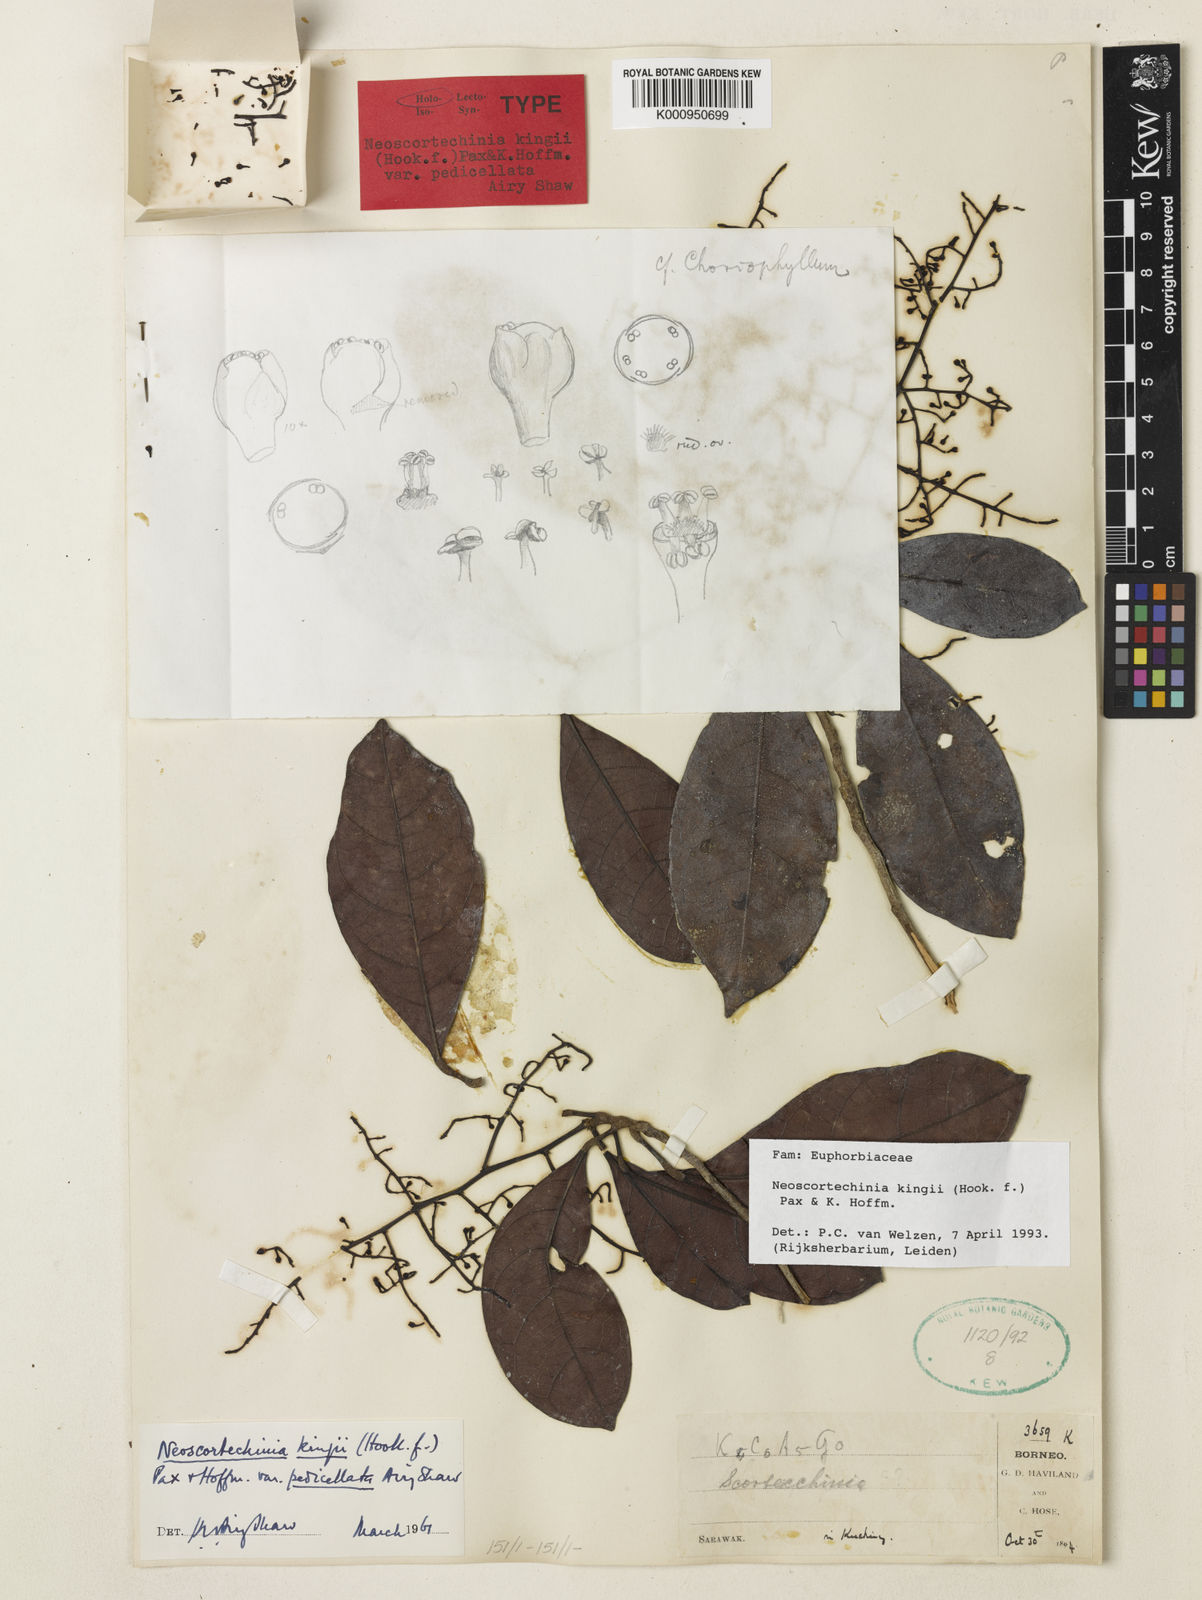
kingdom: Plantae
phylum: Tracheophyta
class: Magnoliopsida
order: Malpighiales
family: Euphorbiaceae
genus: Neoscortechinia
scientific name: Neoscortechinia kingii
